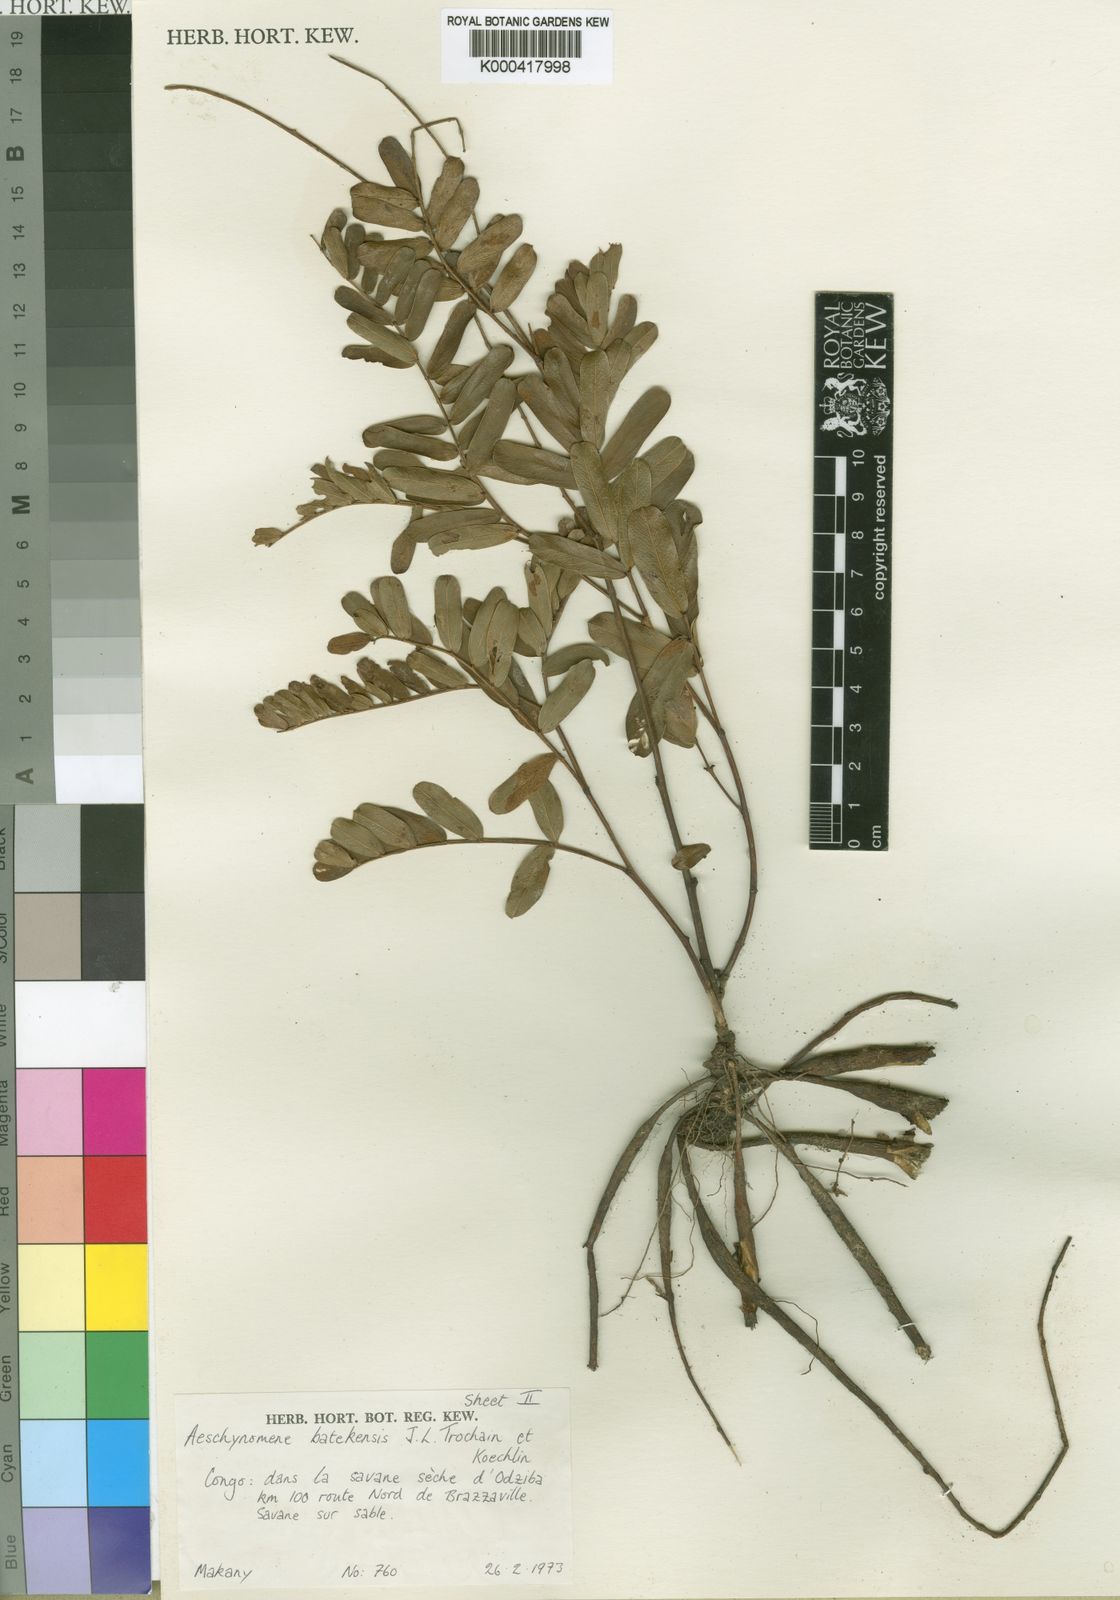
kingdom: Plantae
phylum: Tracheophyta
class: Magnoliopsida
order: Fabales
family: Fabaceae
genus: Aeschynomene
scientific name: Aeschynomene batekensis
